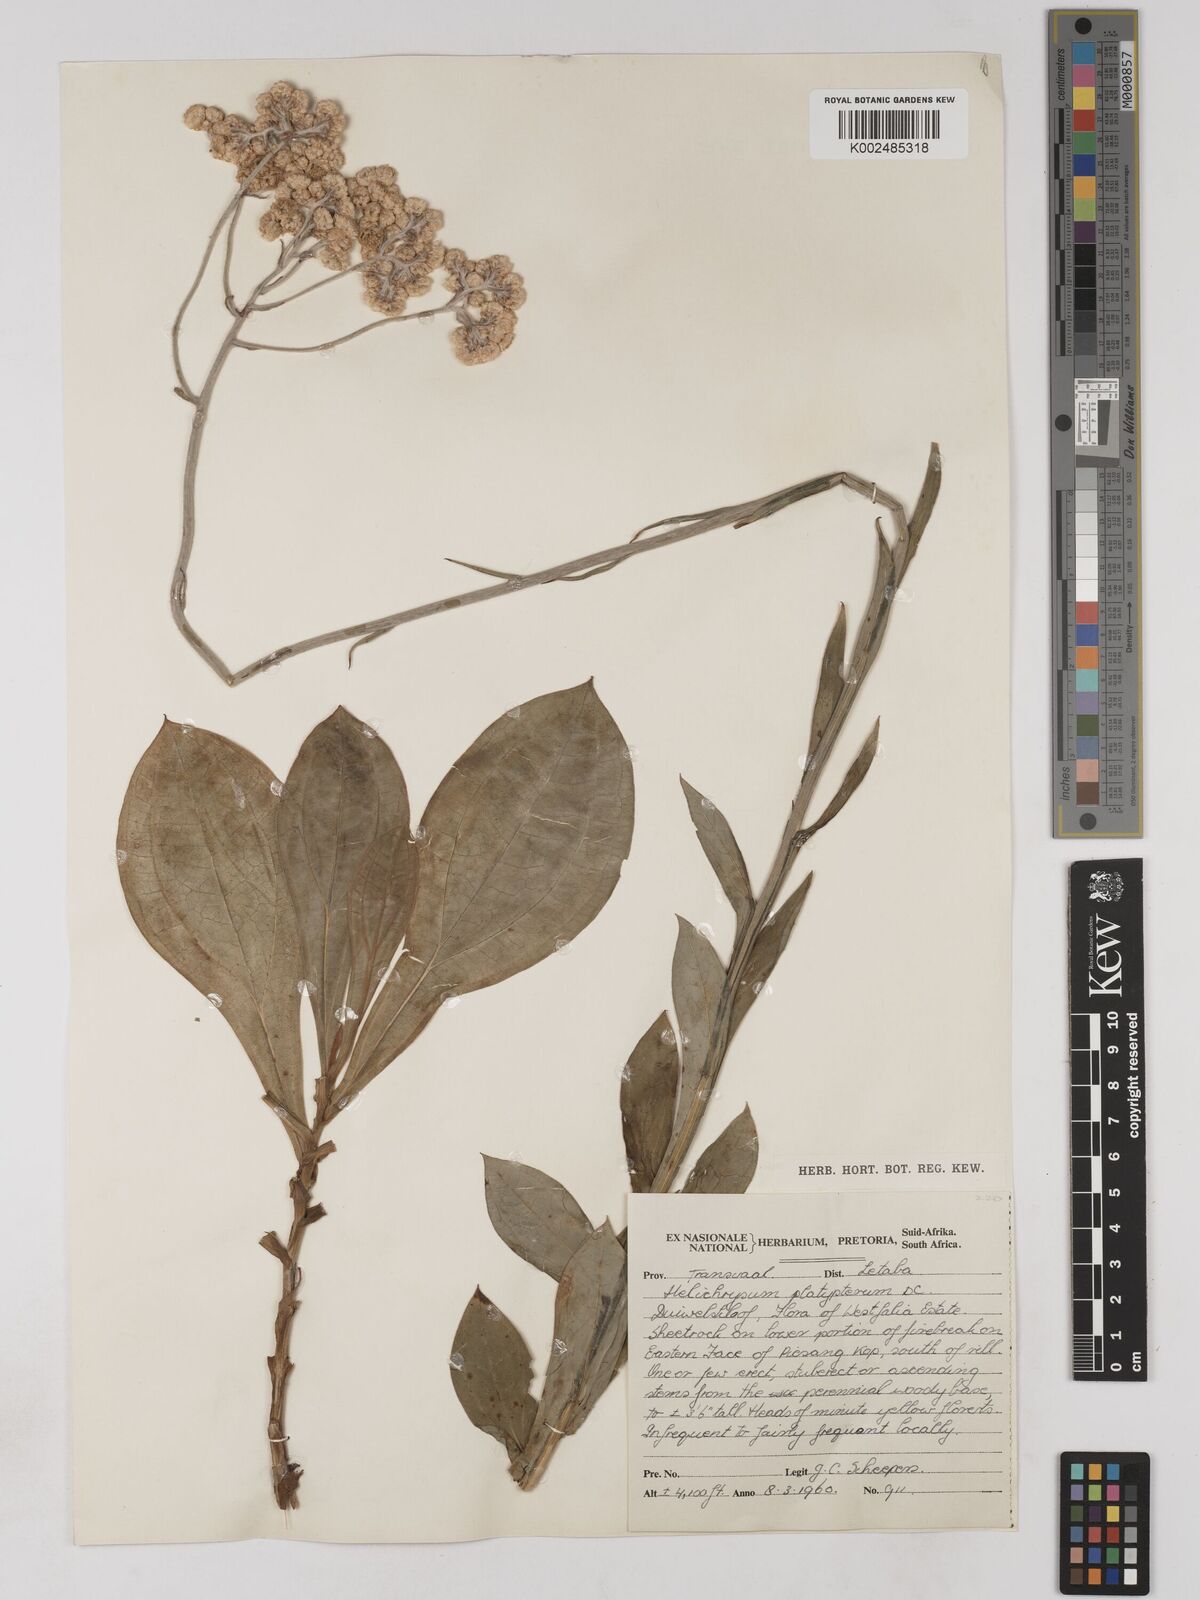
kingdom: Plantae
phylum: Tracheophyta
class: Magnoliopsida
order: Asterales
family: Asteraceae
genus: Helichrysum
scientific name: Helichrysum platypterum
